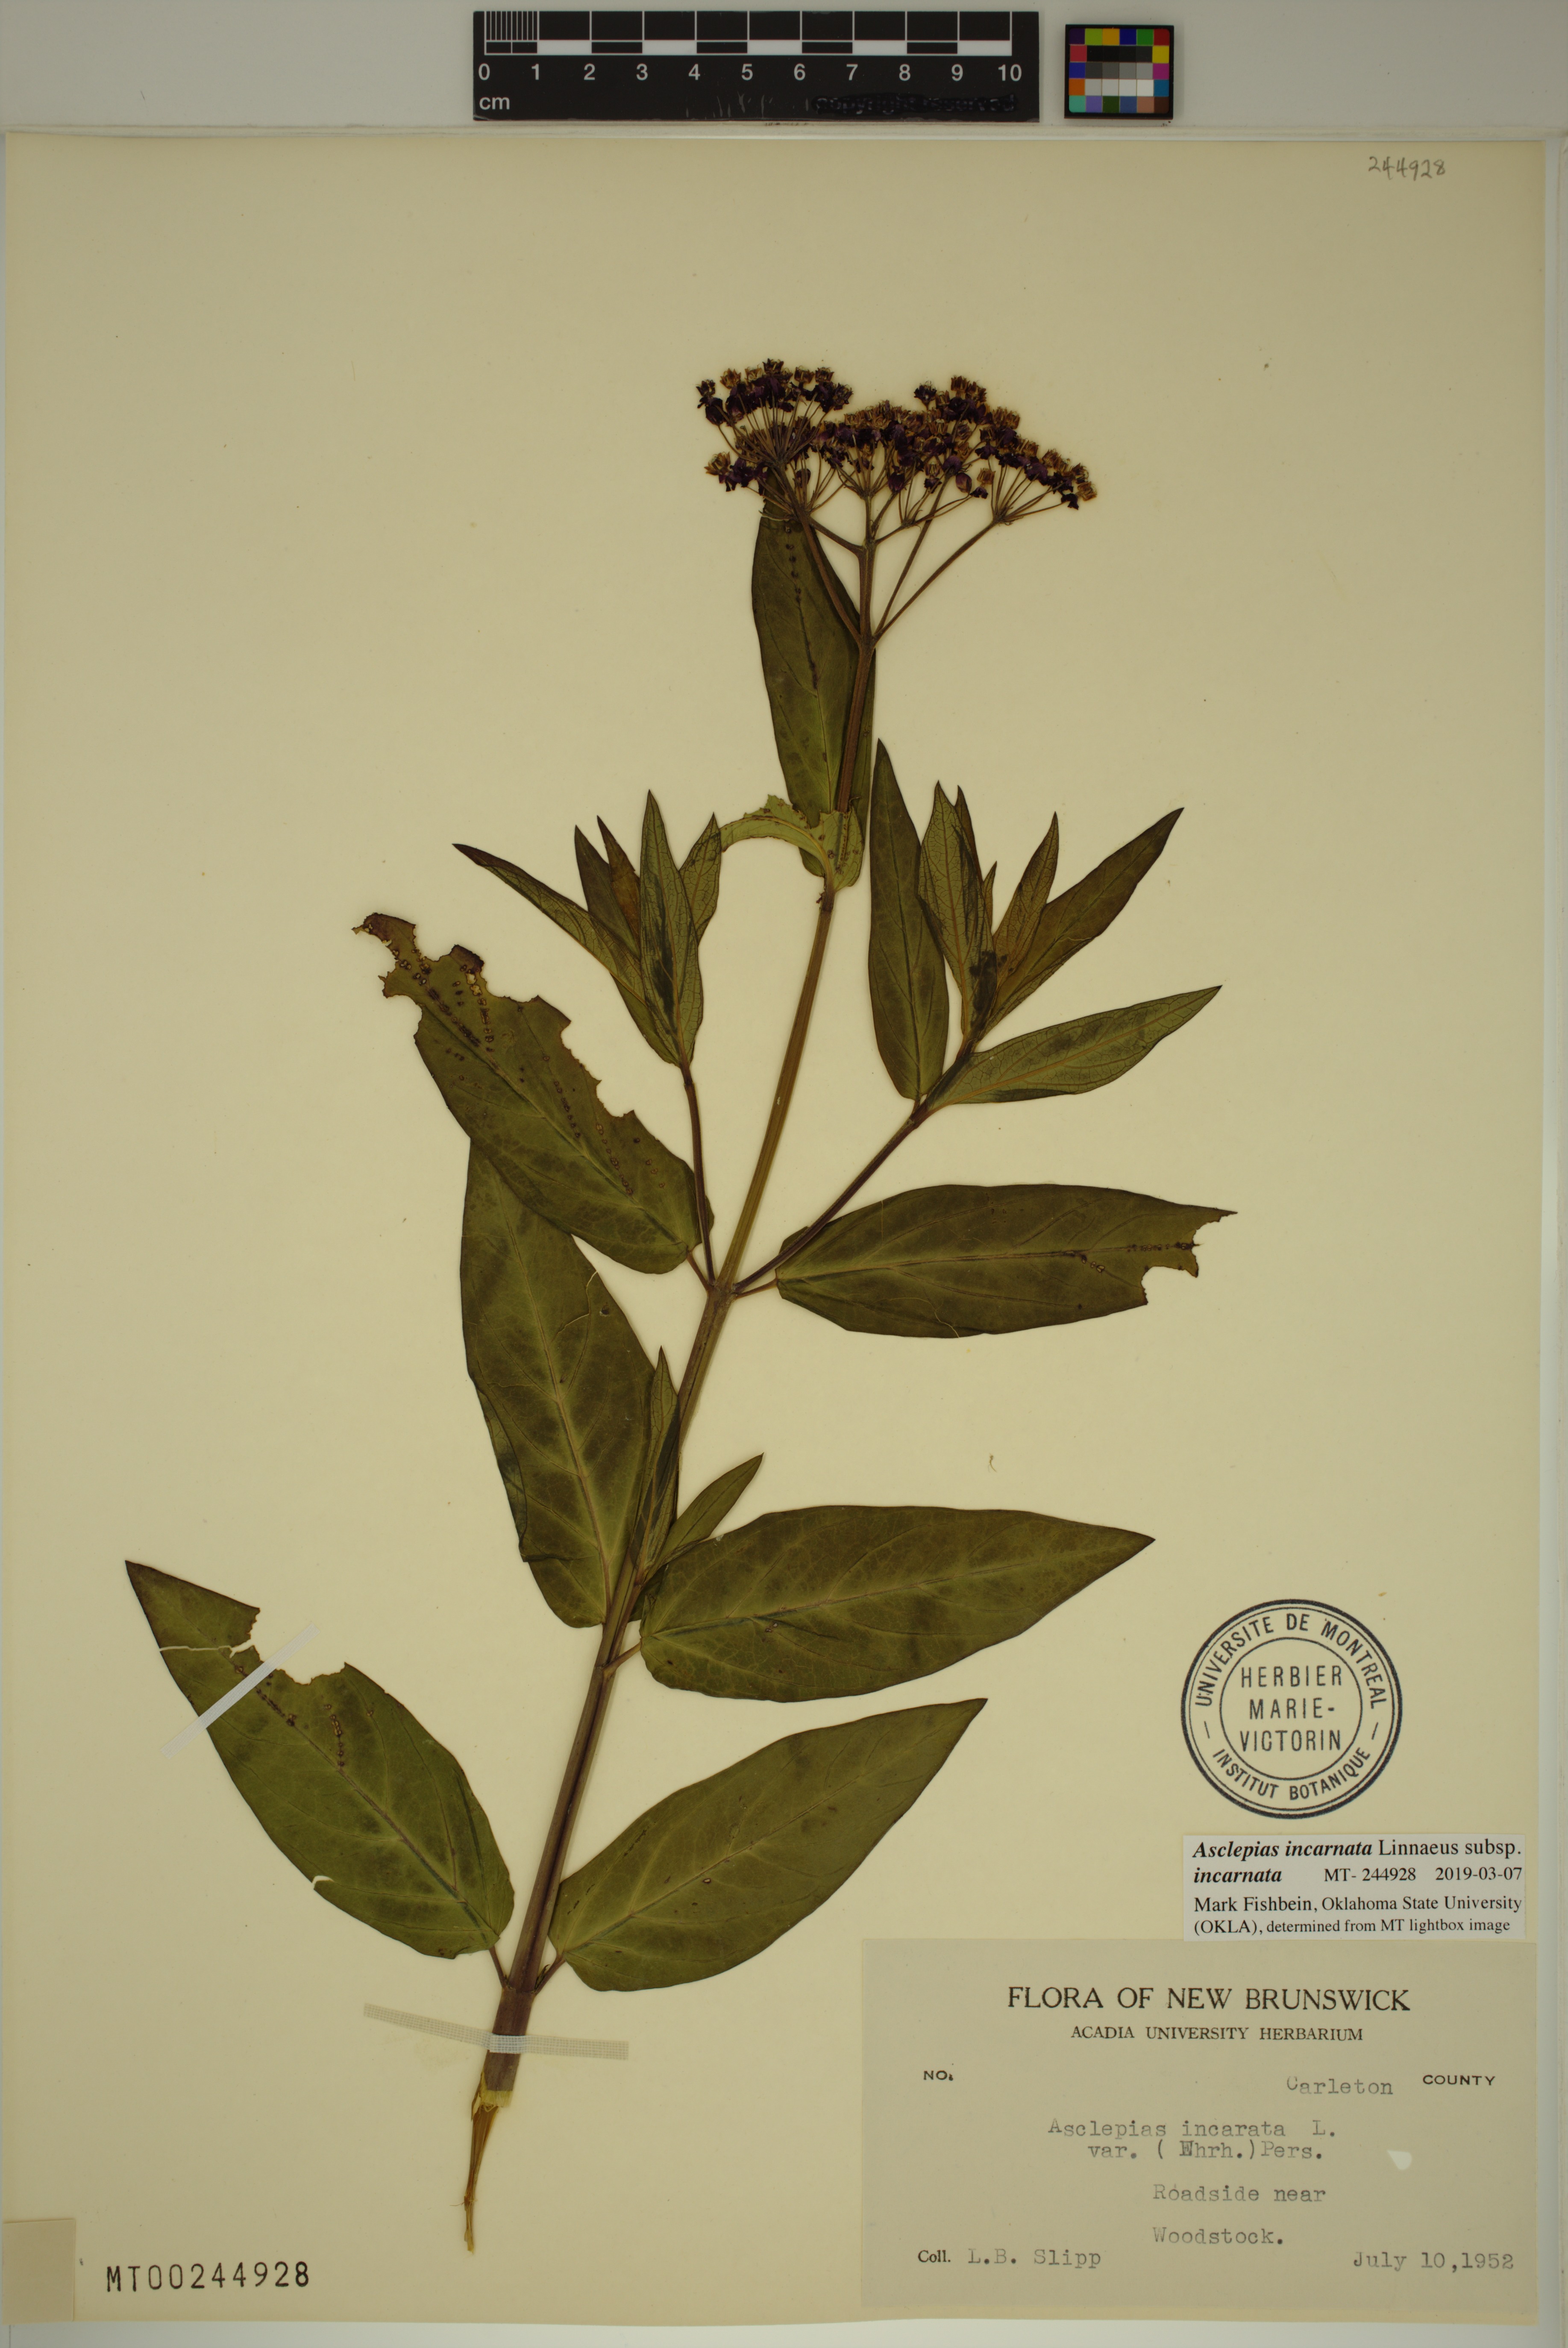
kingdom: Plantae
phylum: Tracheophyta
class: Magnoliopsida
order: Gentianales
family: Apocynaceae
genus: Asclepias
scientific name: Asclepias incarnata
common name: Swamp milkweed
